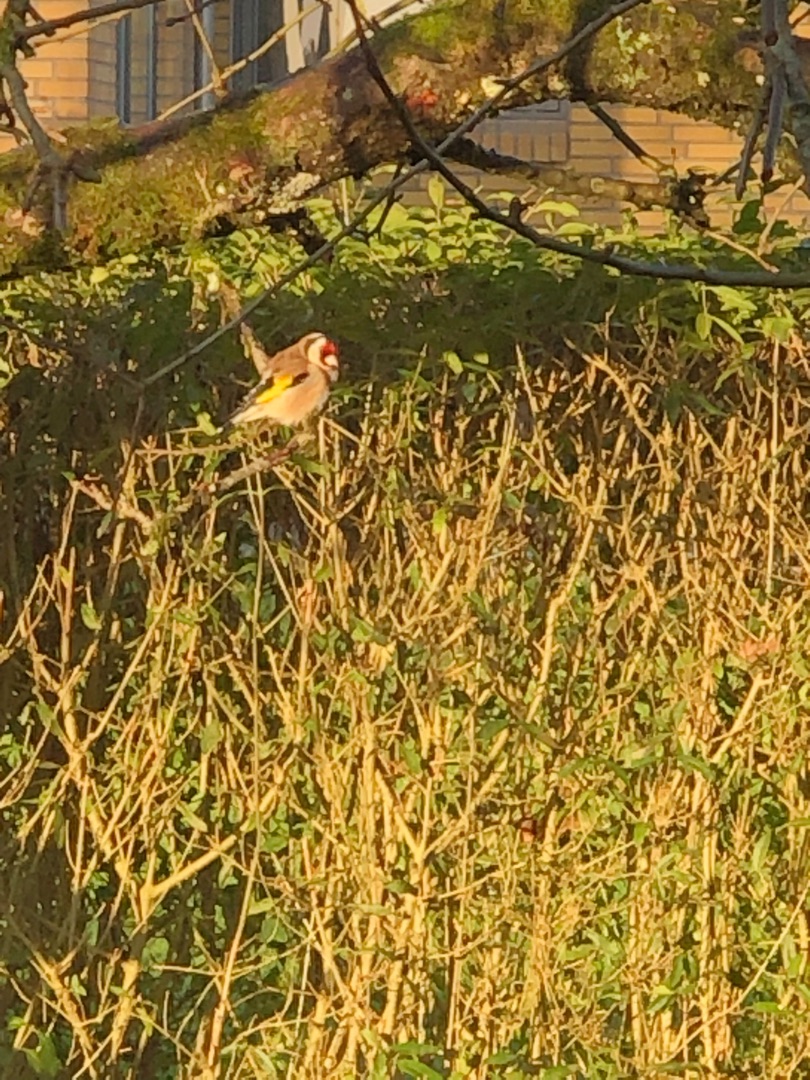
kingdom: Animalia
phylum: Chordata
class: Aves
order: Passeriformes
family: Fringillidae
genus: Carduelis
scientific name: Carduelis carduelis
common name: Stillits
